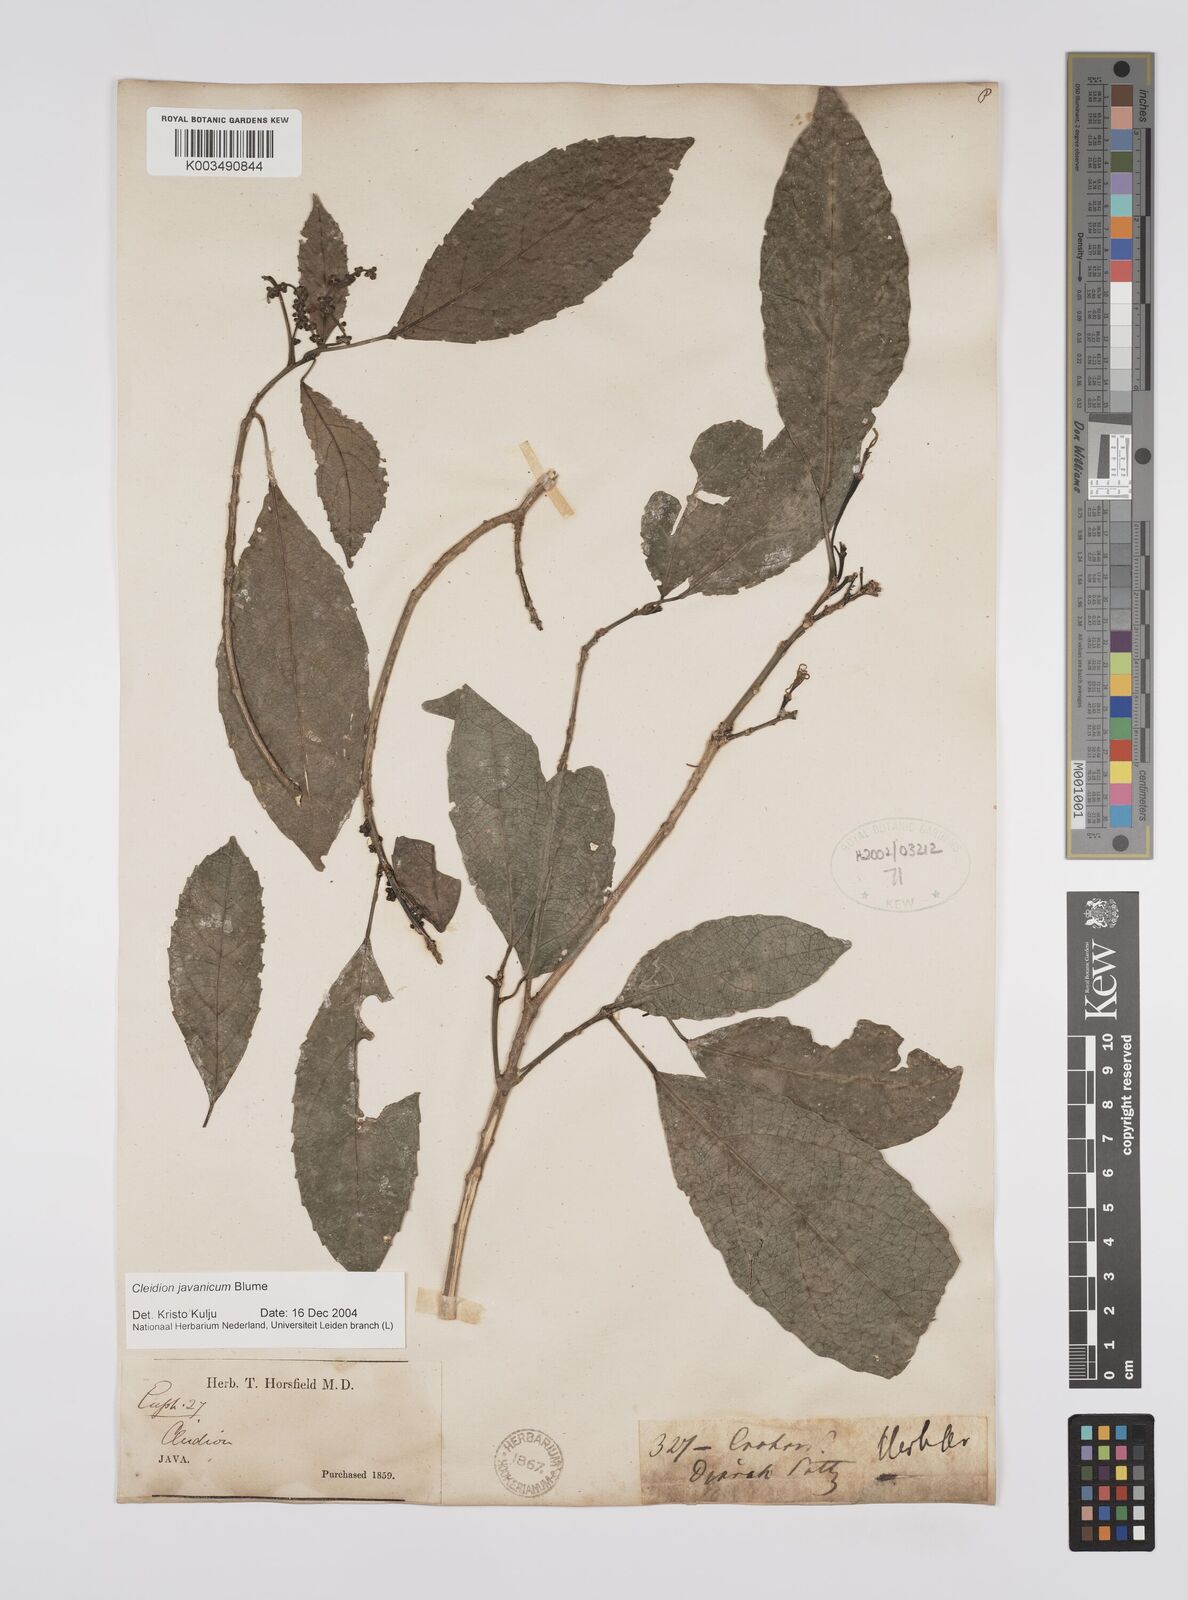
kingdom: Plantae
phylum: Tracheophyta
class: Magnoliopsida
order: Malpighiales
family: Euphorbiaceae
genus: Acalypha
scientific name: Acalypha spiciflora
